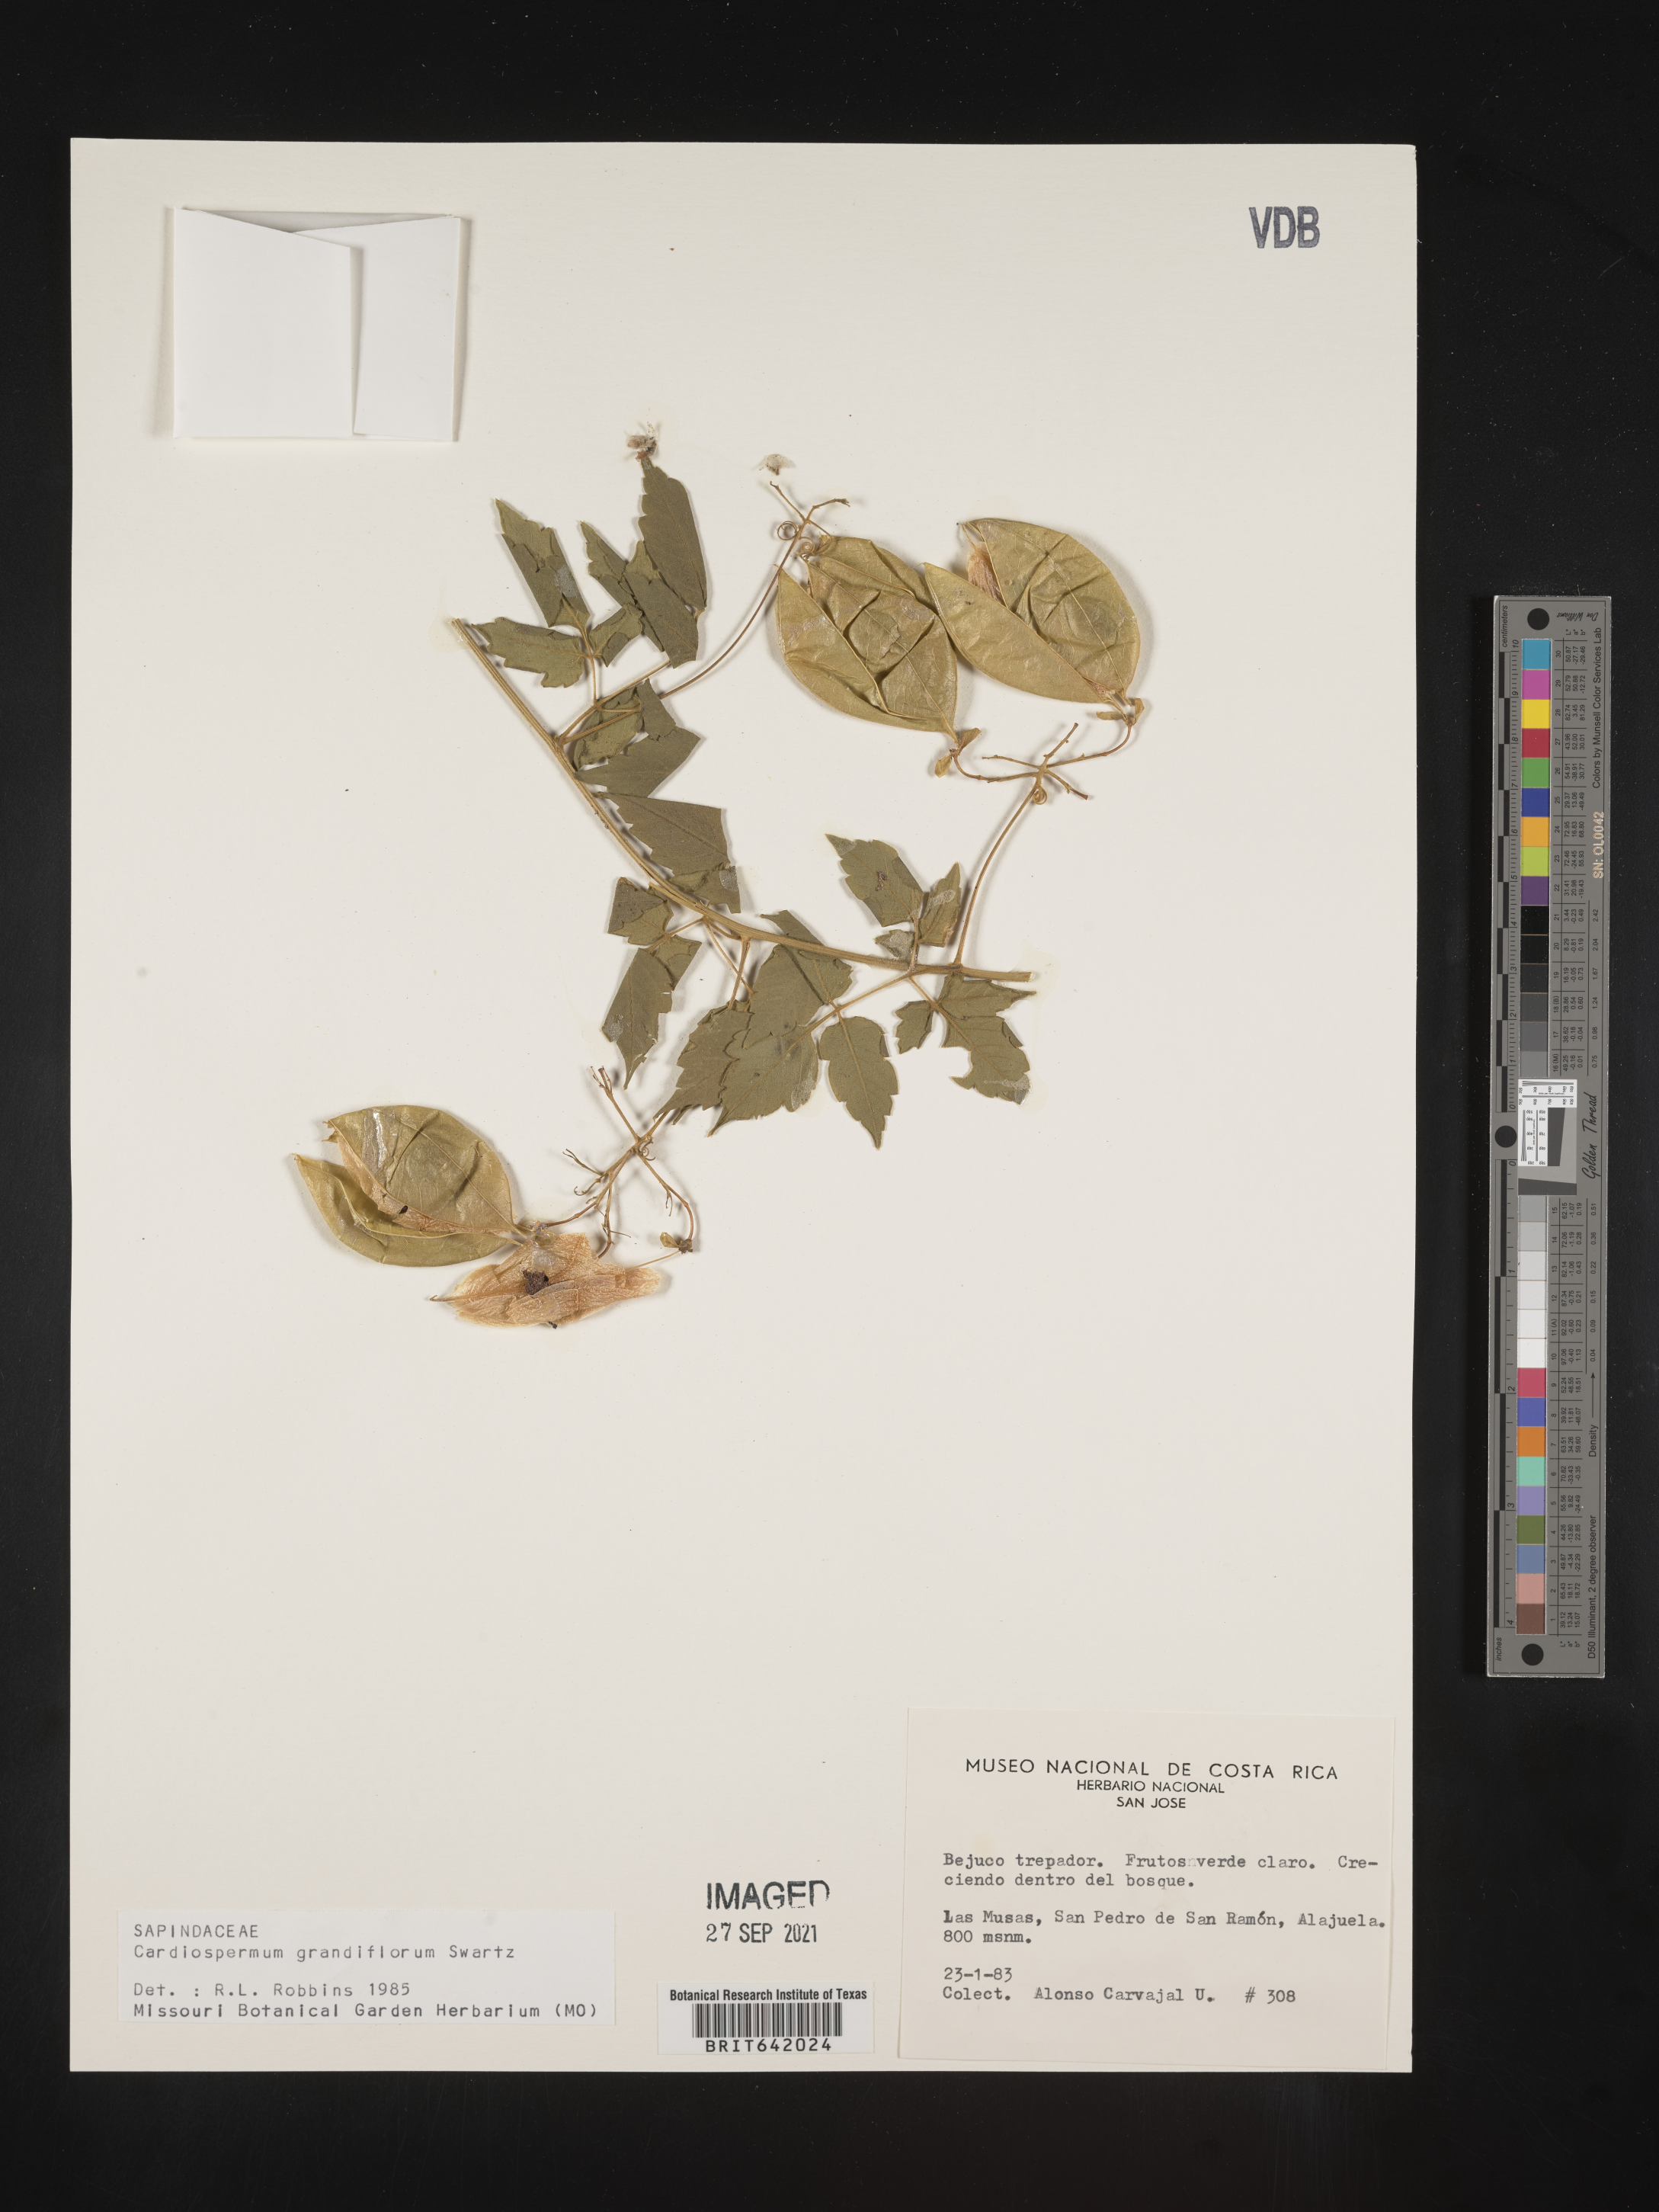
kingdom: Plantae
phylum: Tracheophyta
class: Magnoliopsida
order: Sapindales
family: Sapindaceae
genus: Cardiospermum
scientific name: Cardiospermum
